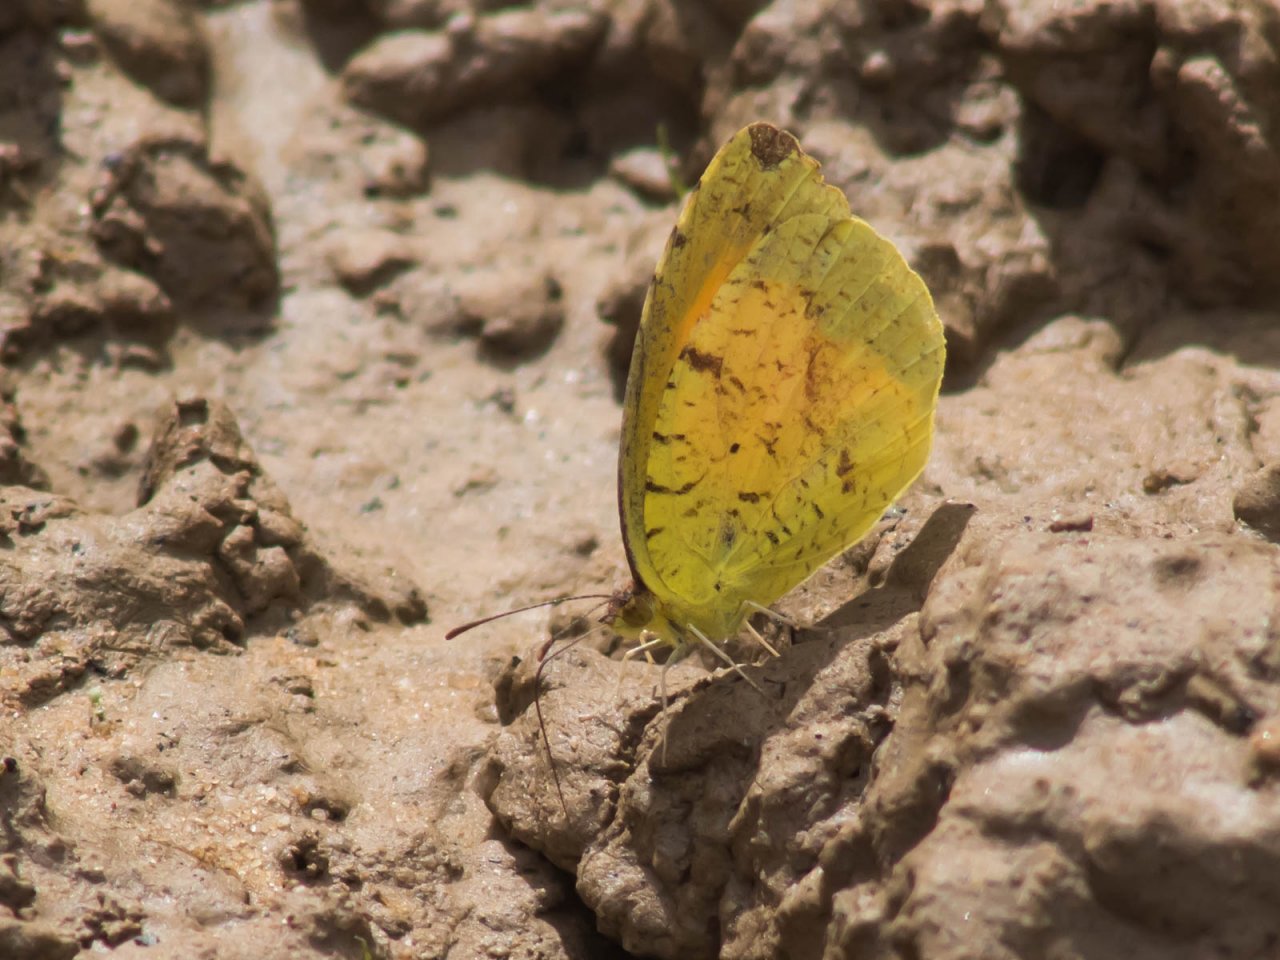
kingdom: Animalia
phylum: Arthropoda
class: Insecta
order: Lepidoptera
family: Pieridae
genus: Abaeis
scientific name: Abaeis nicippe
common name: Sleepy Orange
